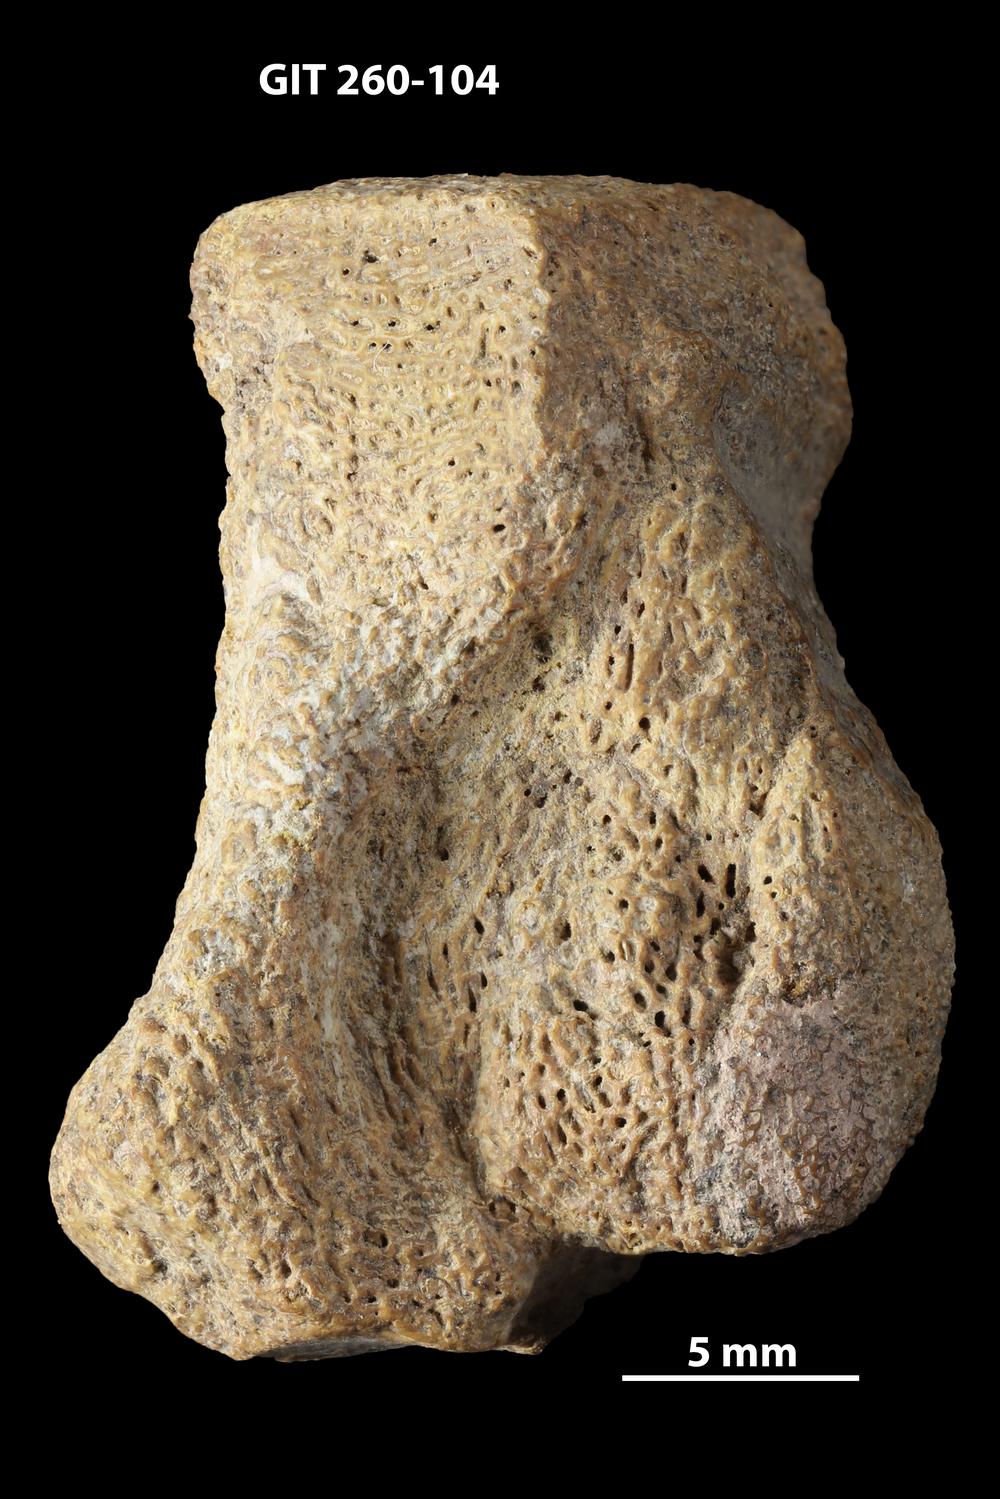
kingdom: Animalia
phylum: Chordata
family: Homostiidae
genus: Homostius
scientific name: Homostius
